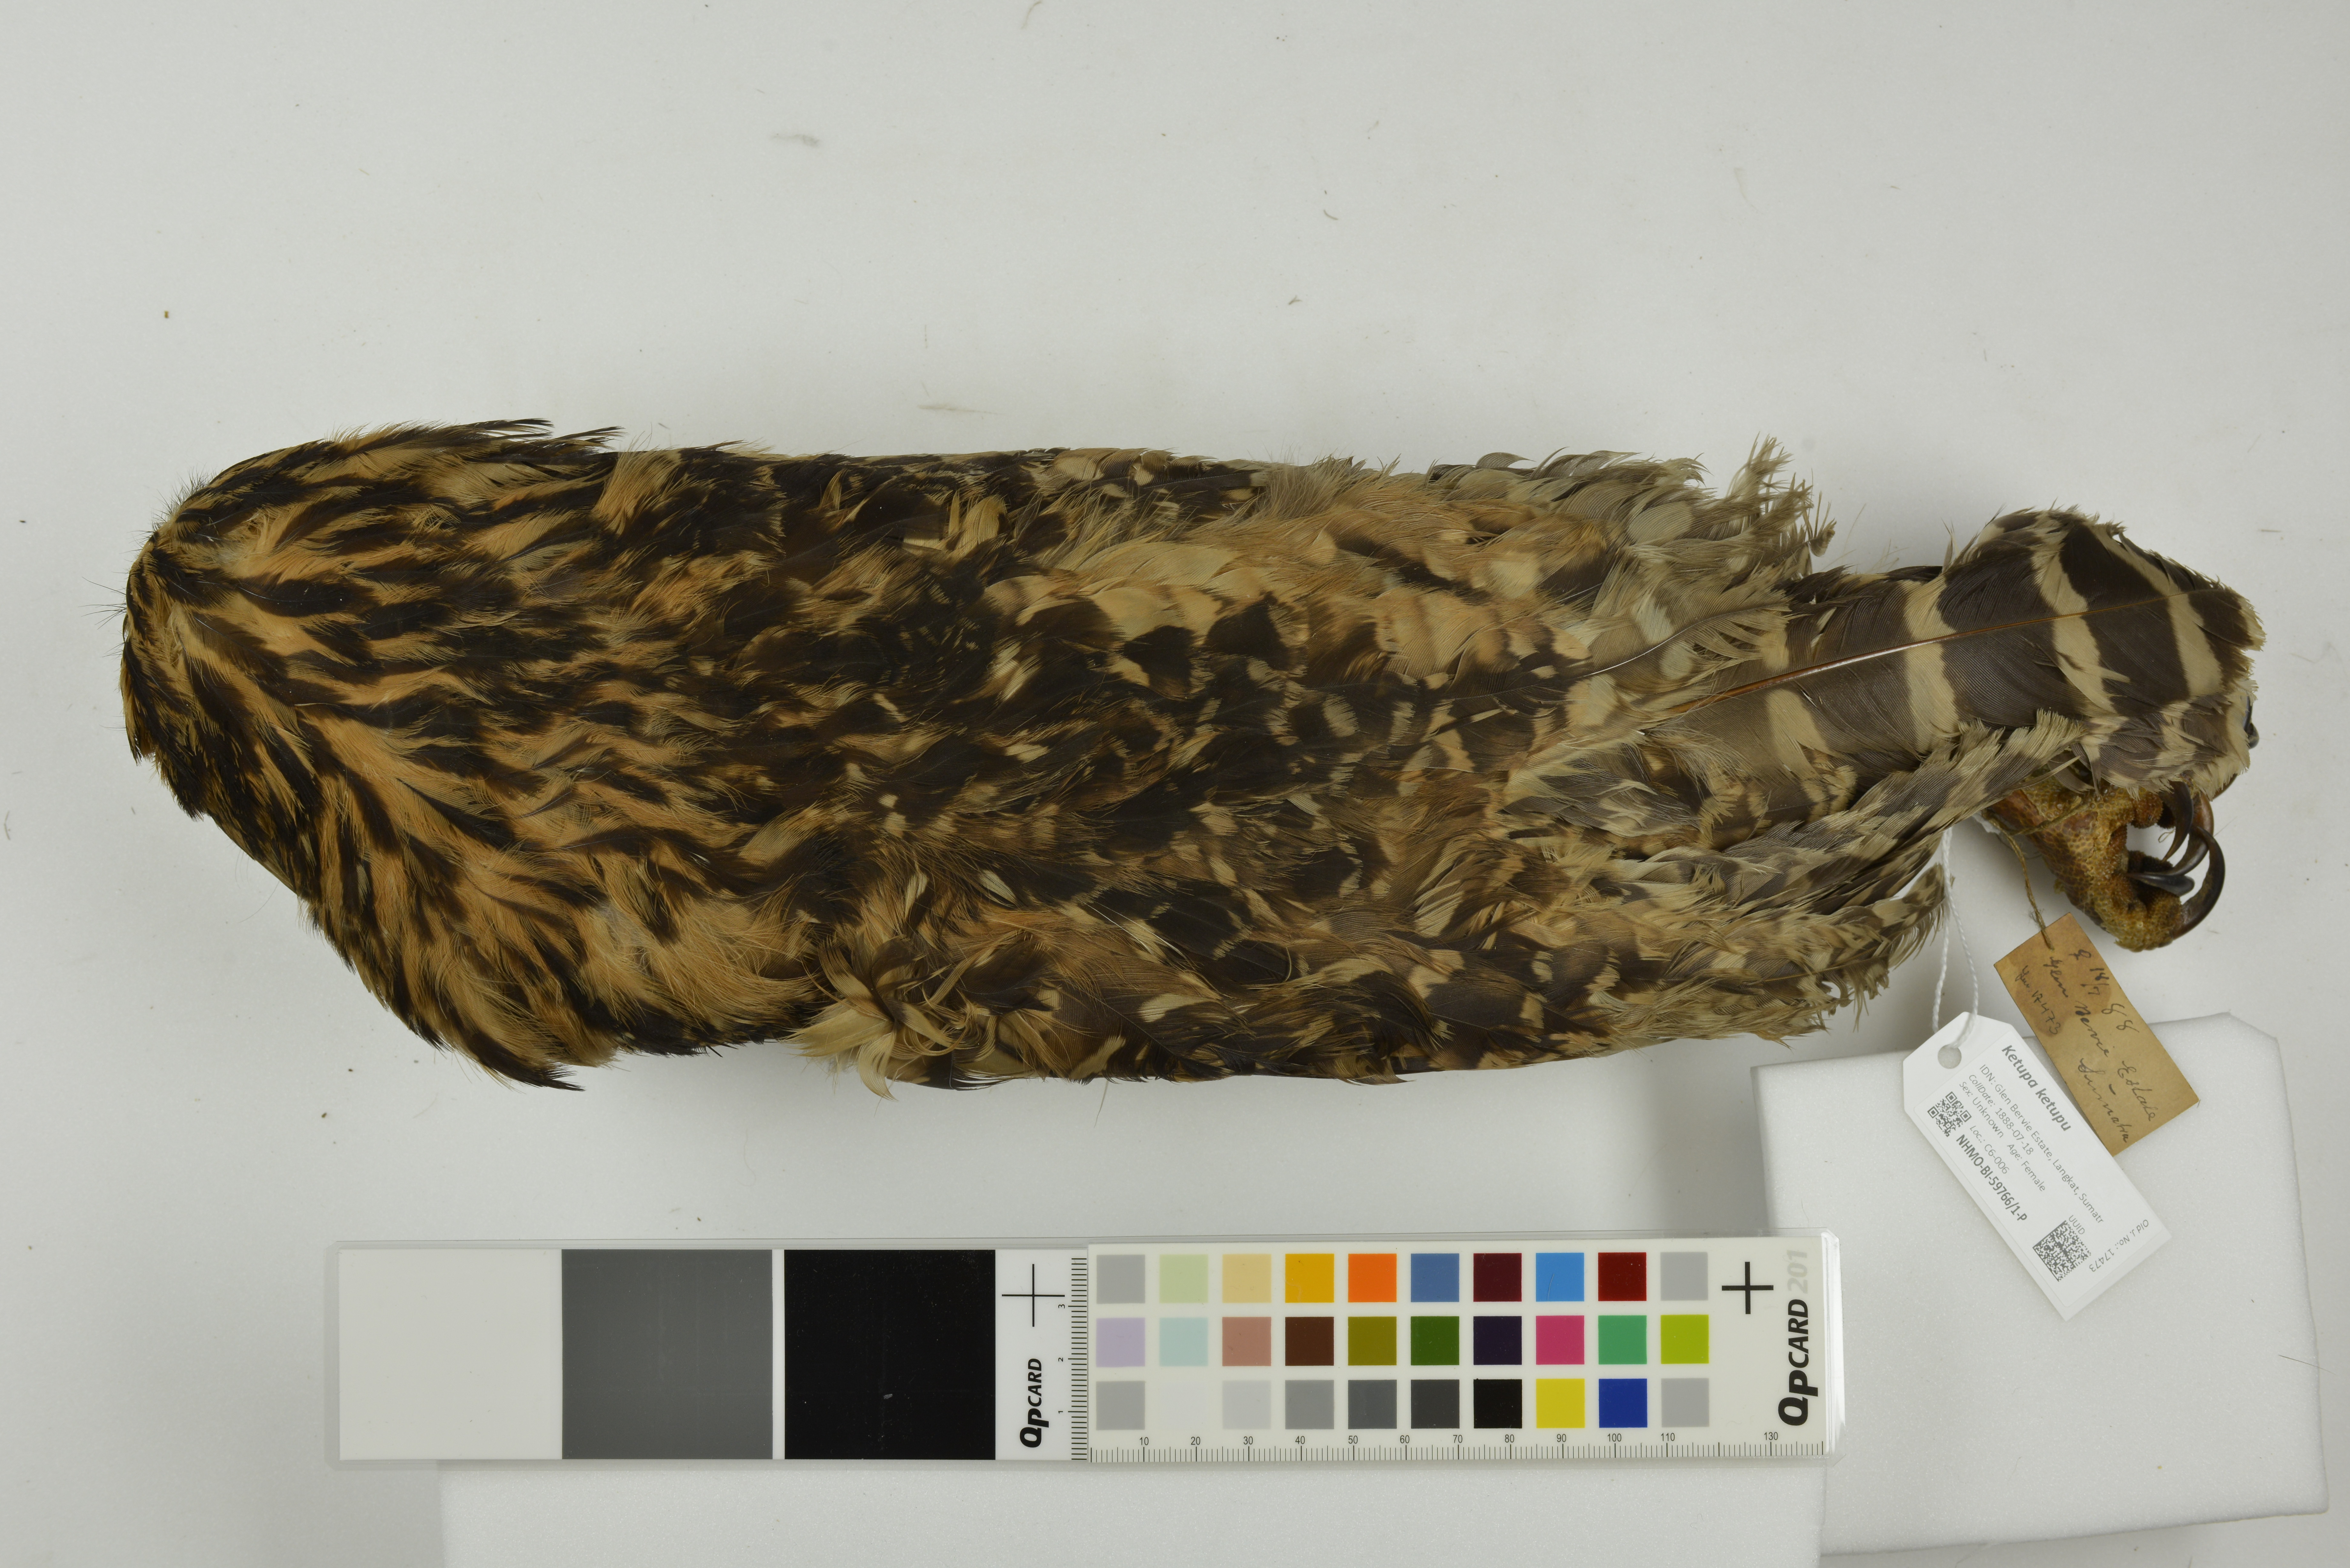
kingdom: Animalia
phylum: Chordata
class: Aves
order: Strigiformes
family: Strigidae
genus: Ketupa
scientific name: Ketupa ketupu
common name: Buffy fish-owl
